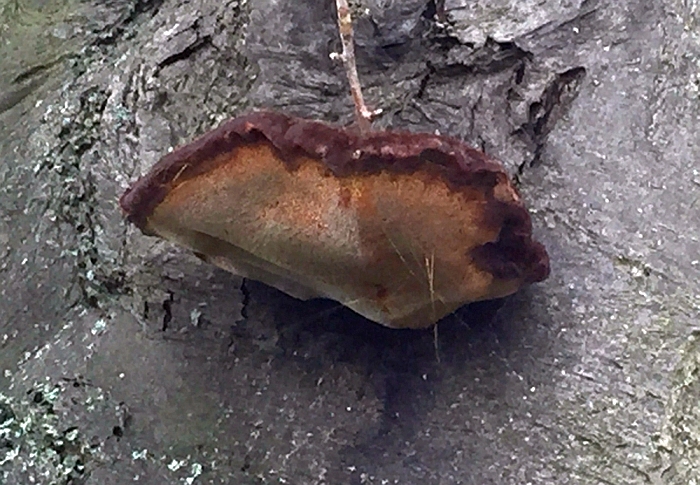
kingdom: Fungi
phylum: Basidiomycota
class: Agaricomycetes
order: Hymenochaetales
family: Hymenochaetaceae
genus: Inonotus
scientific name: Inonotus hispidus
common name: børstehåret spejlporesvamp
